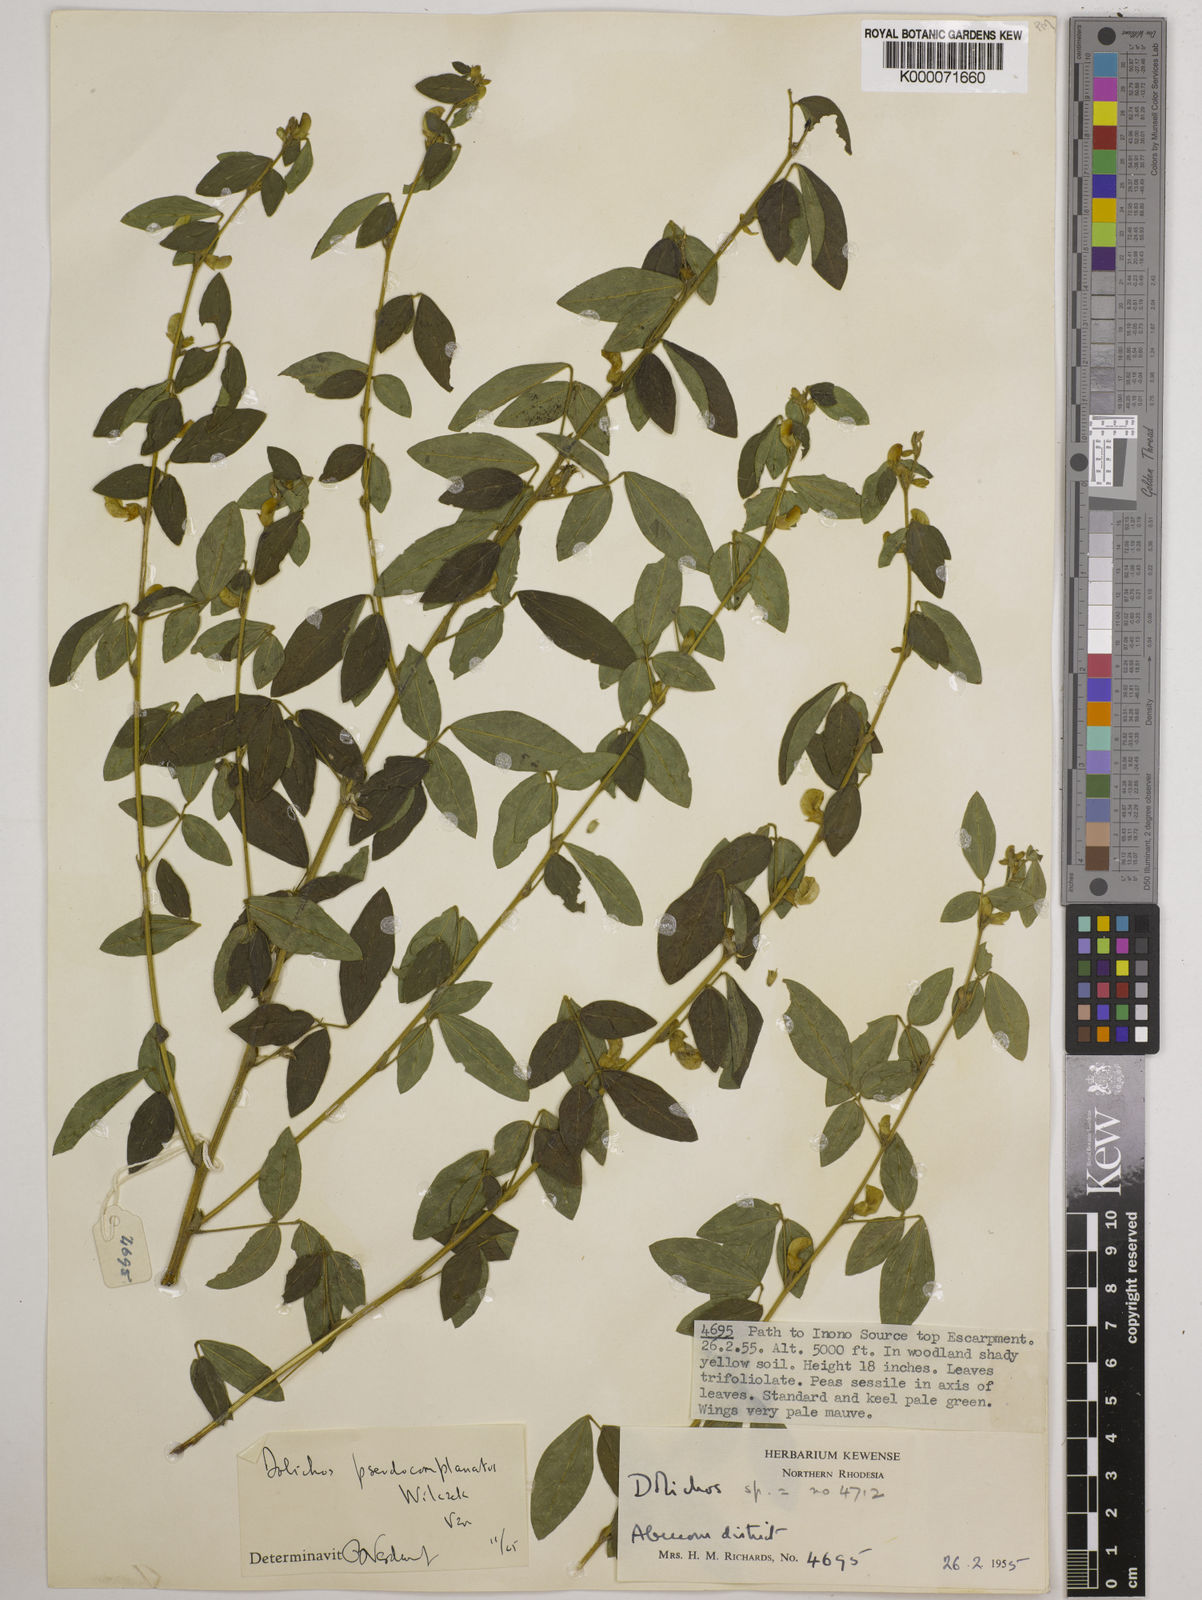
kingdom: Plantae
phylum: Tracheophyta
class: Magnoliopsida
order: Fabales
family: Fabaceae
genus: Dolichos
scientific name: Dolichos
